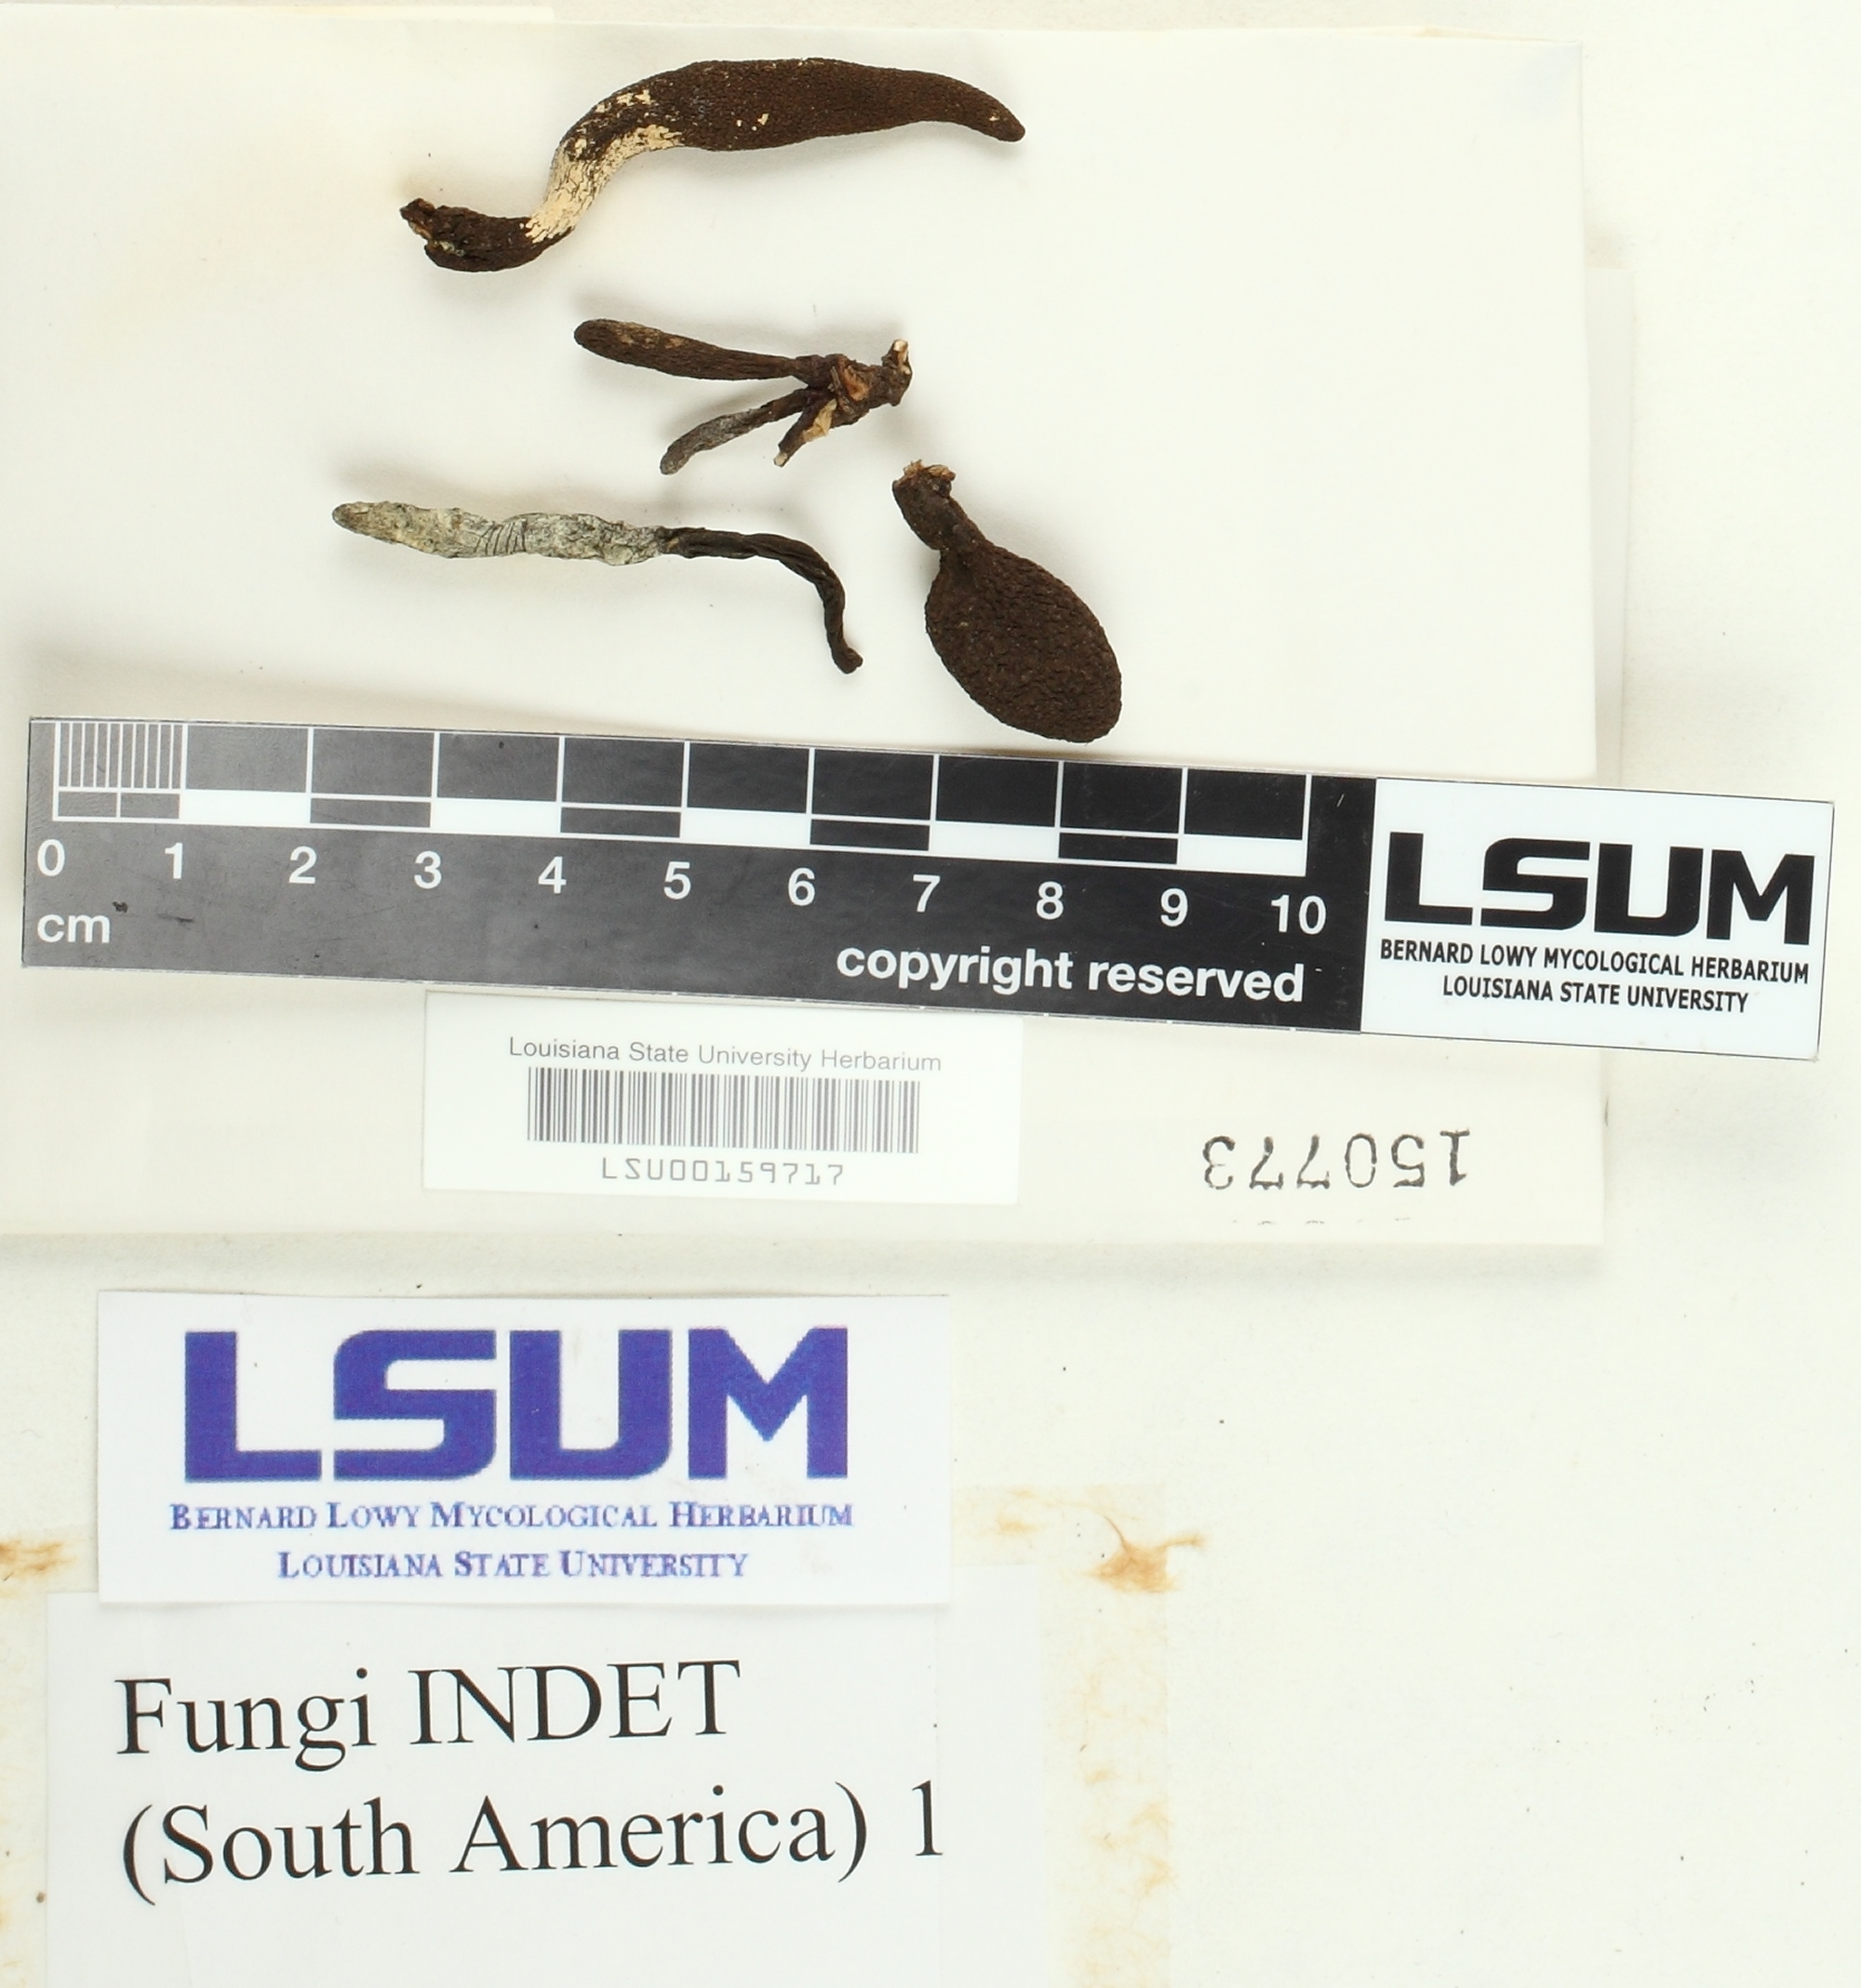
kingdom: Fungi
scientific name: Fungi
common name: Fungi
